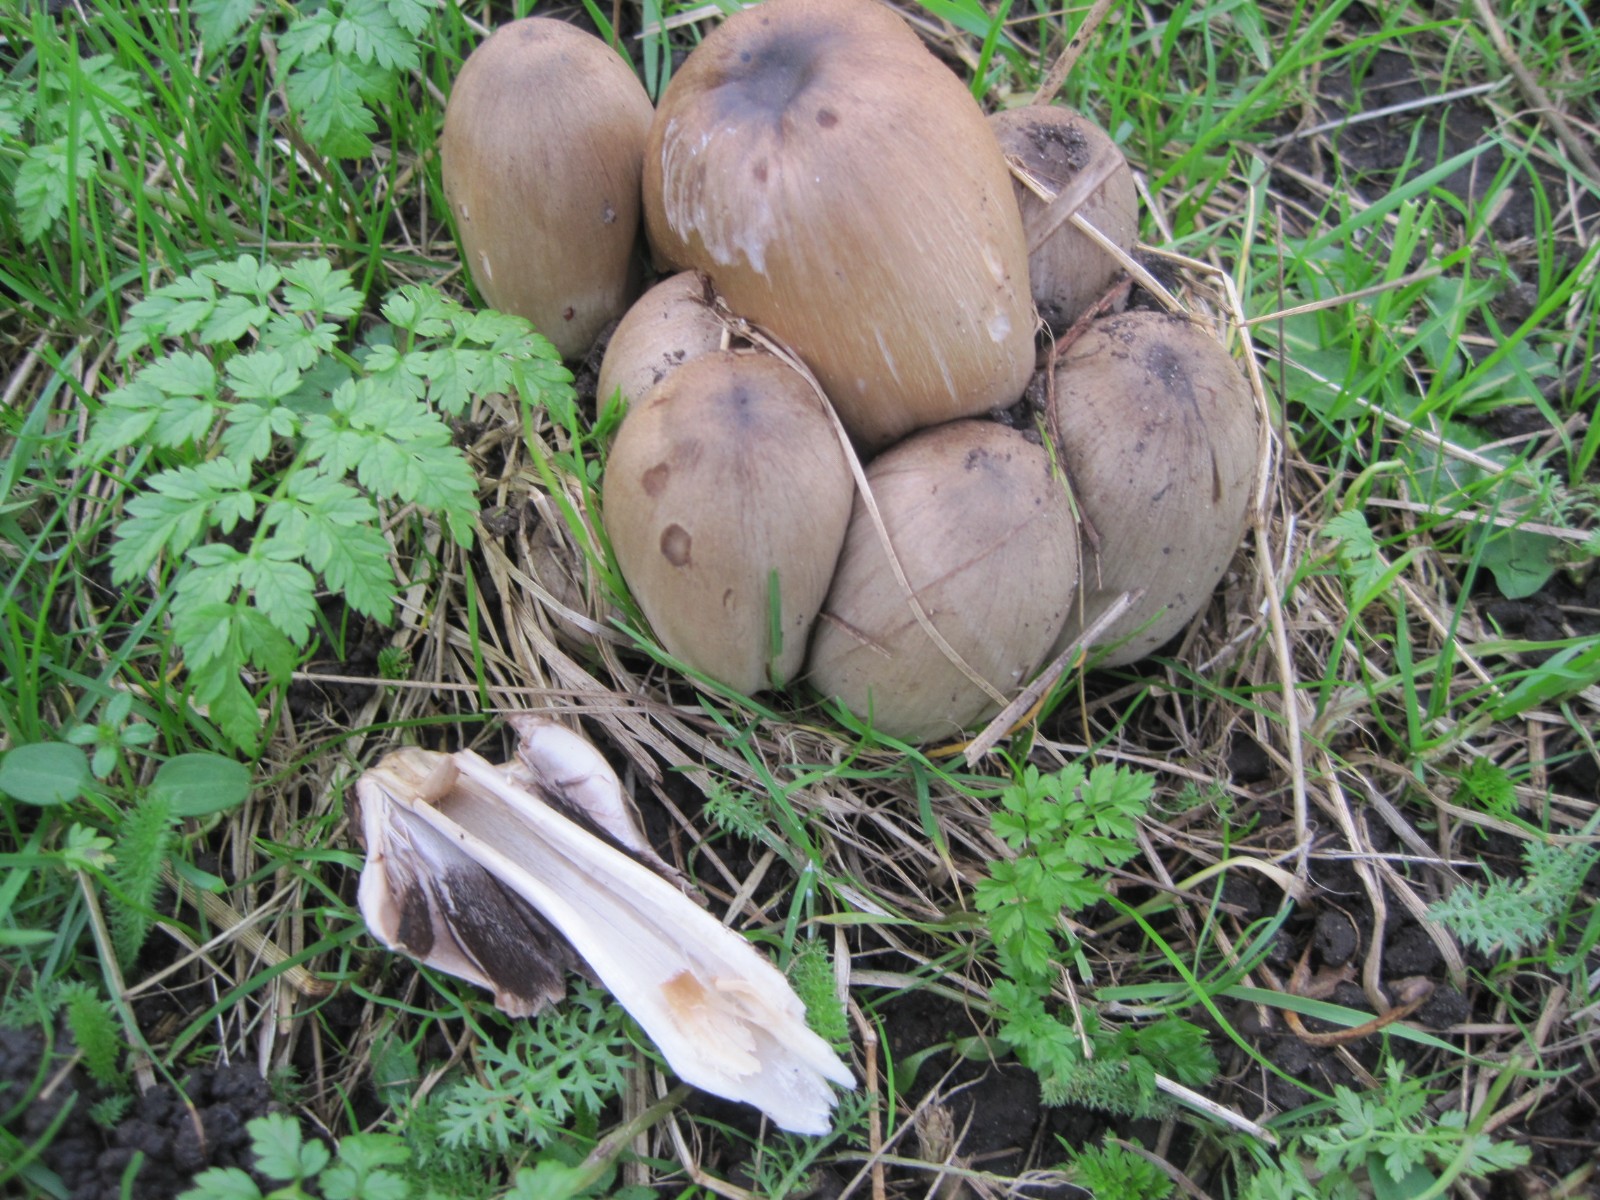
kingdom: Fungi
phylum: Basidiomycota
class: Agaricomycetes
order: Agaricales
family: Psathyrellaceae
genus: Coprinopsis
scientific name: Coprinopsis atramentaria
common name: almindelig blækhat
